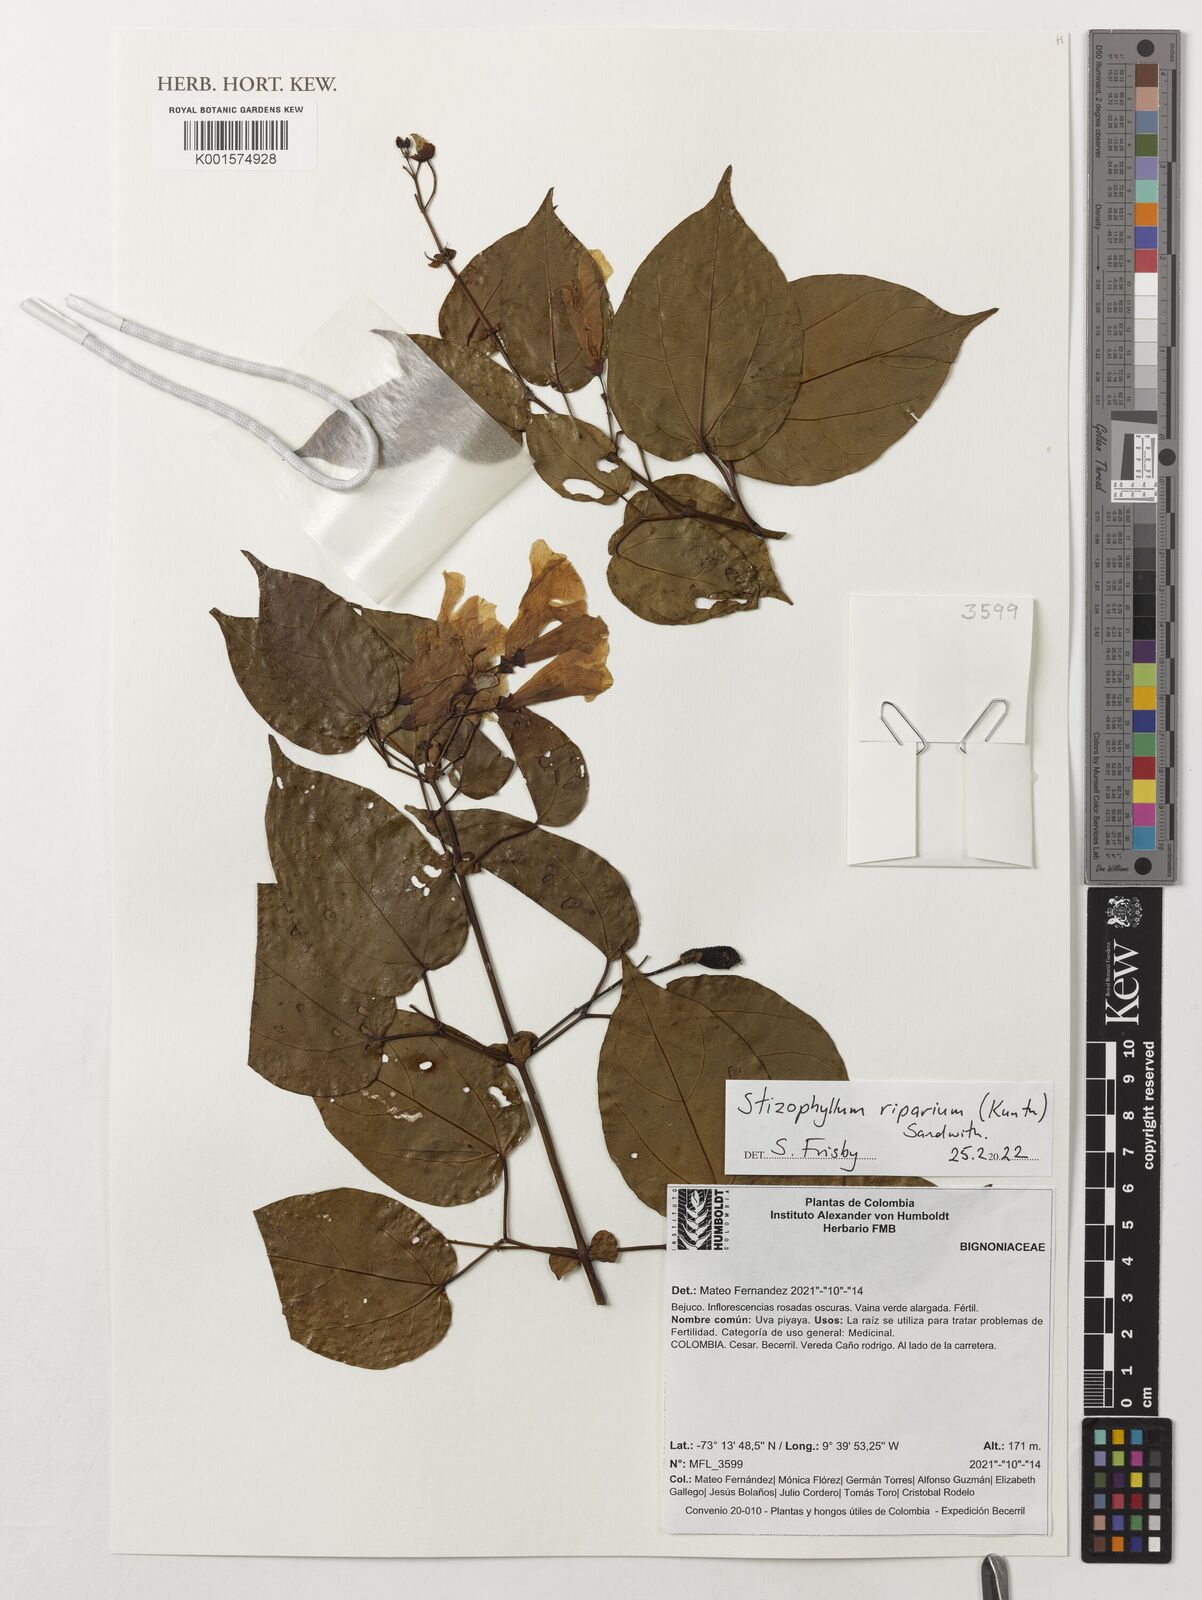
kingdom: Plantae
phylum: Tracheophyta
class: Magnoliopsida
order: Lamiales
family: Bignoniaceae
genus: Stizophyllum
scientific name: Stizophyllum riparium
